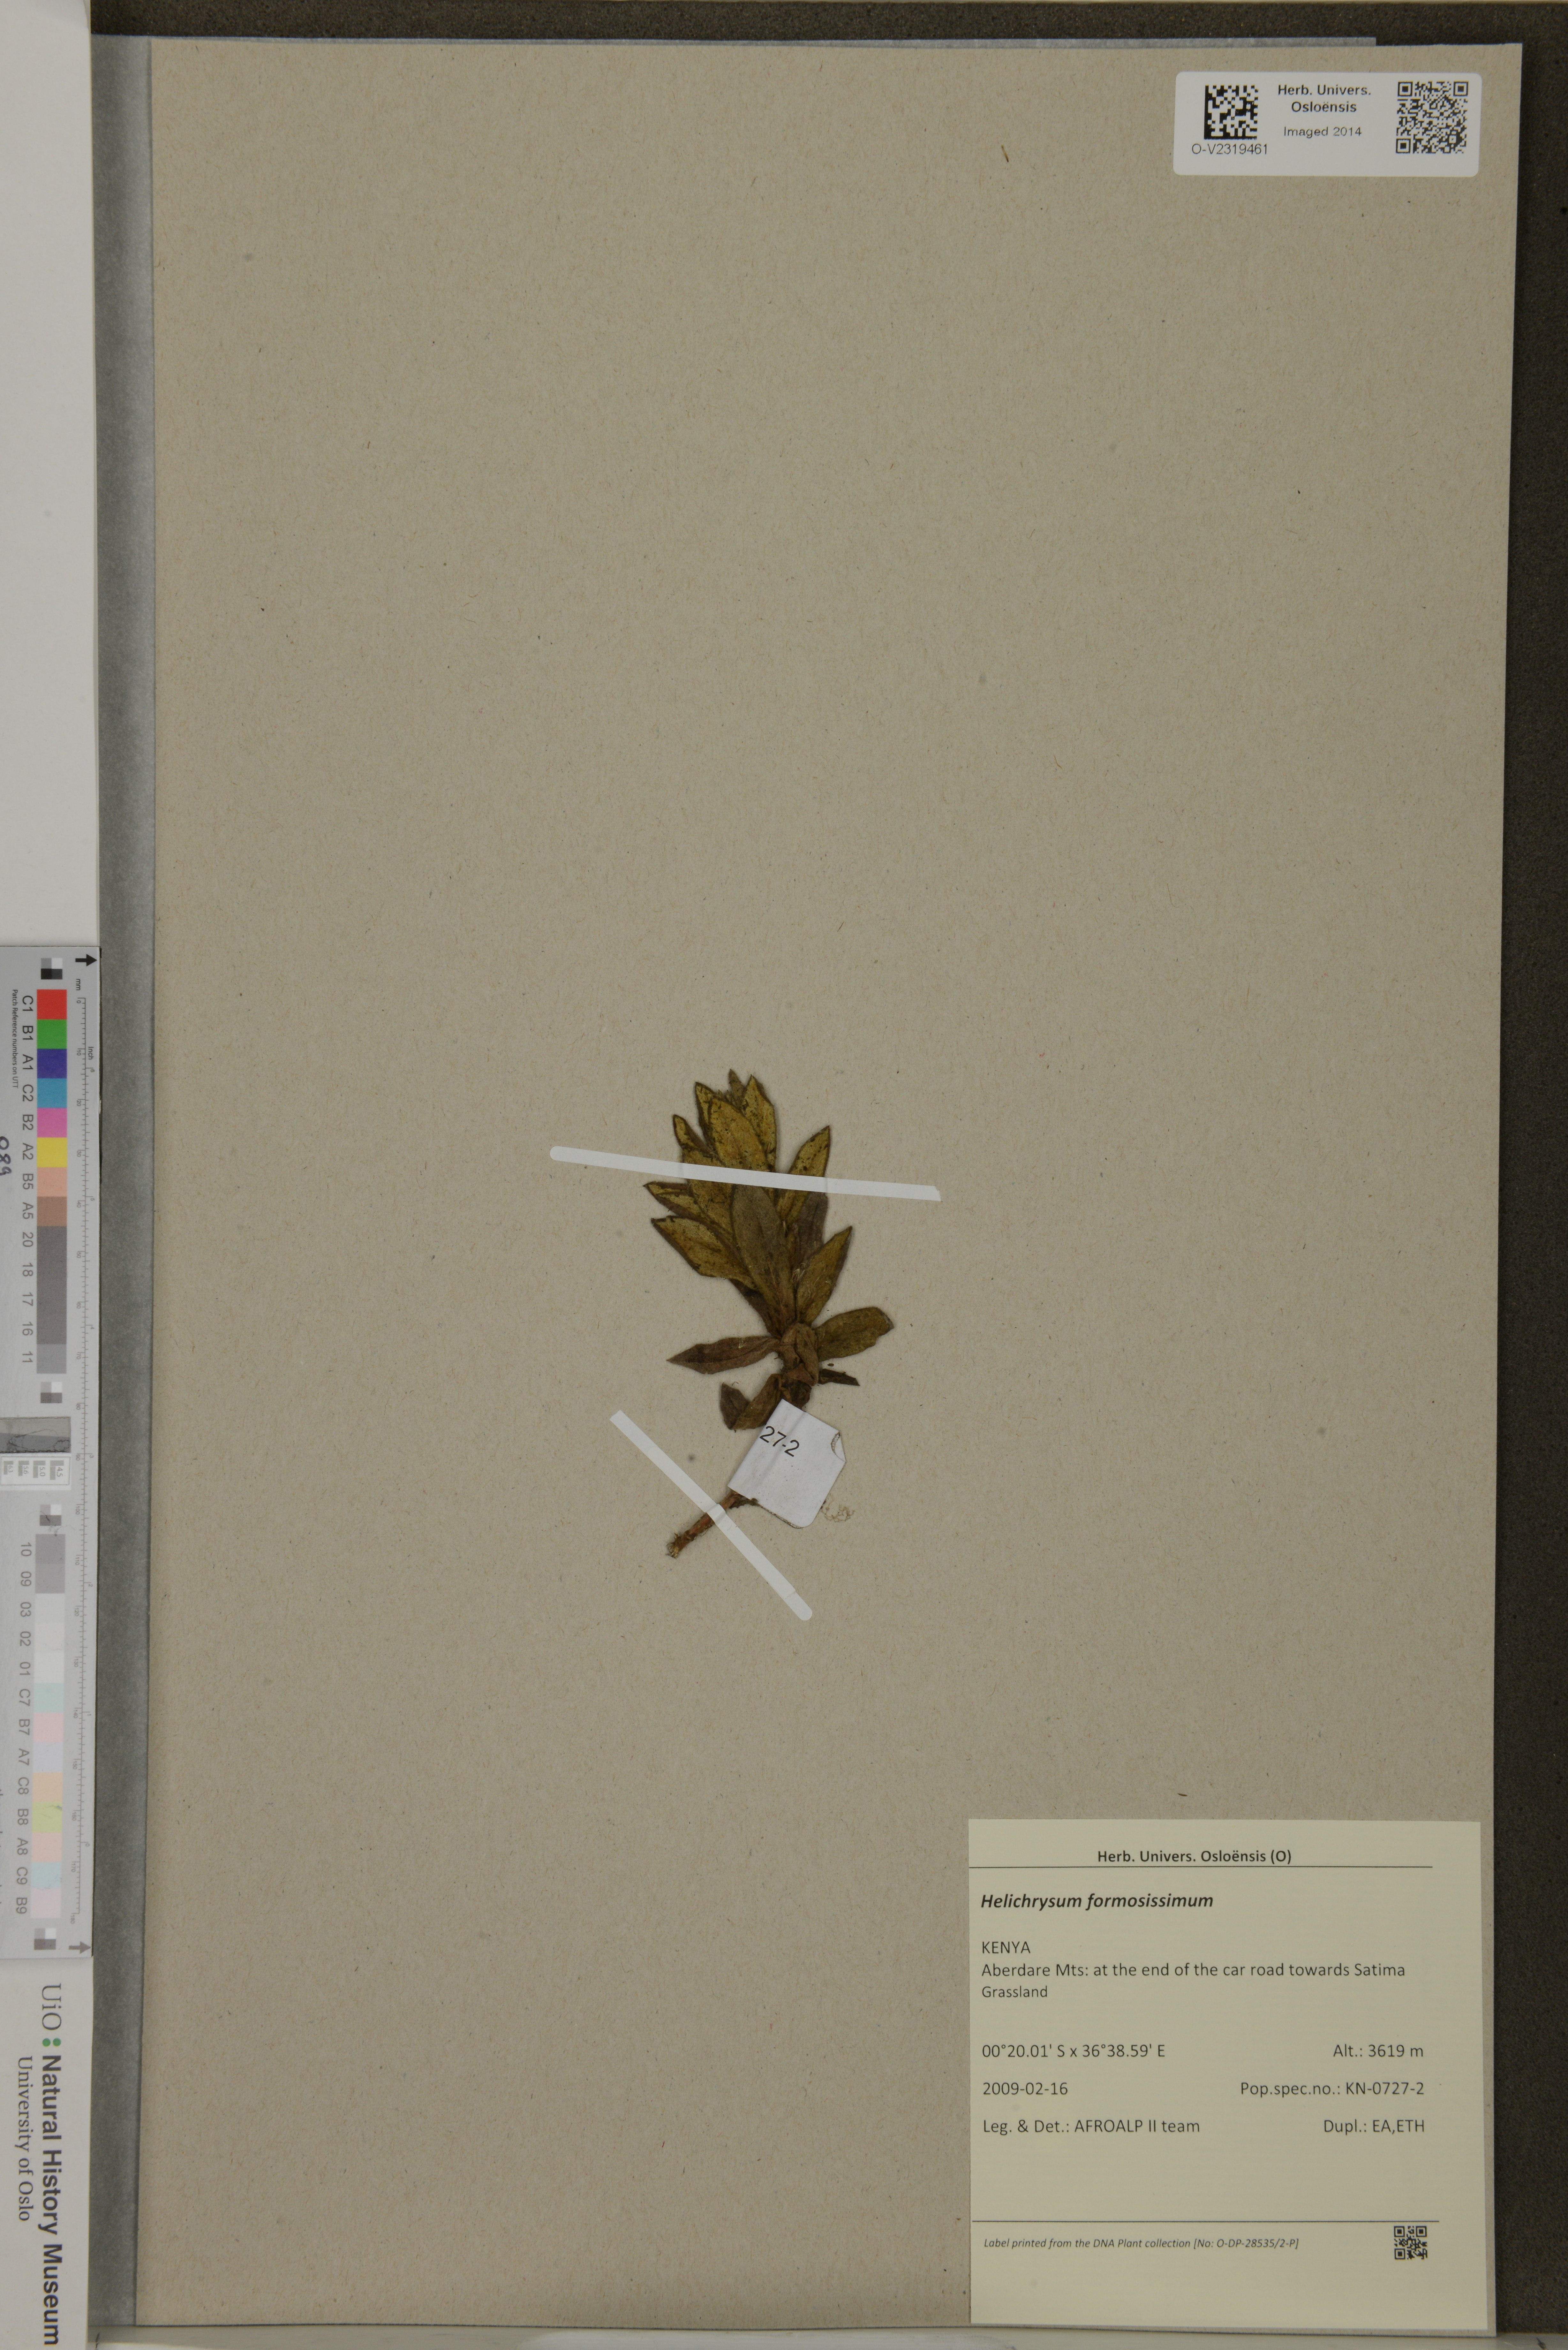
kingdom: Plantae
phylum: Tracheophyta
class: Magnoliopsida
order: Asterales
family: Asteraceae
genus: Helichrysum
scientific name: Helichrysum formosissimum
